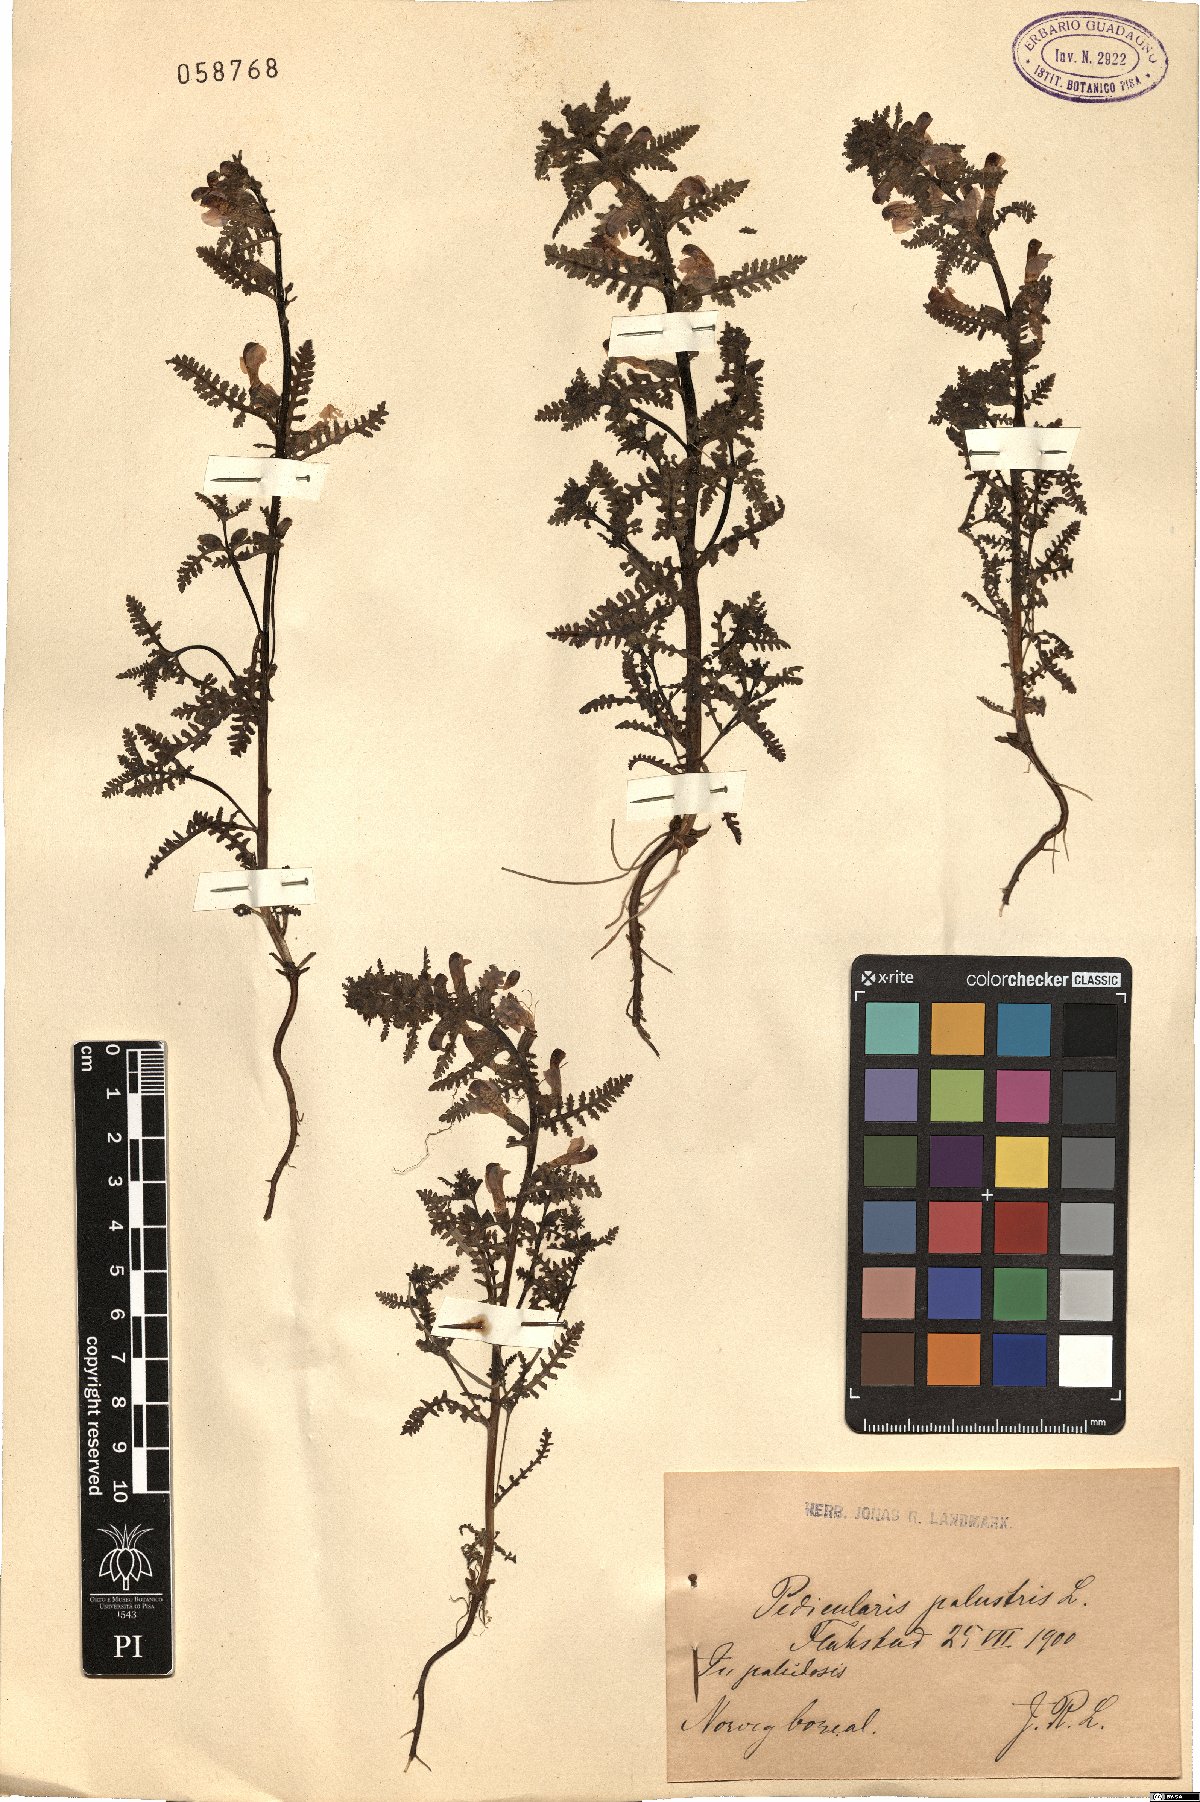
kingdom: Plantae
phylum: Tracheophyta
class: Magnoliopsida
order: Lamiales
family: Orobanchaceae
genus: Pedicularis
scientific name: Pedicularis palustris
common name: Marsh lousewort
